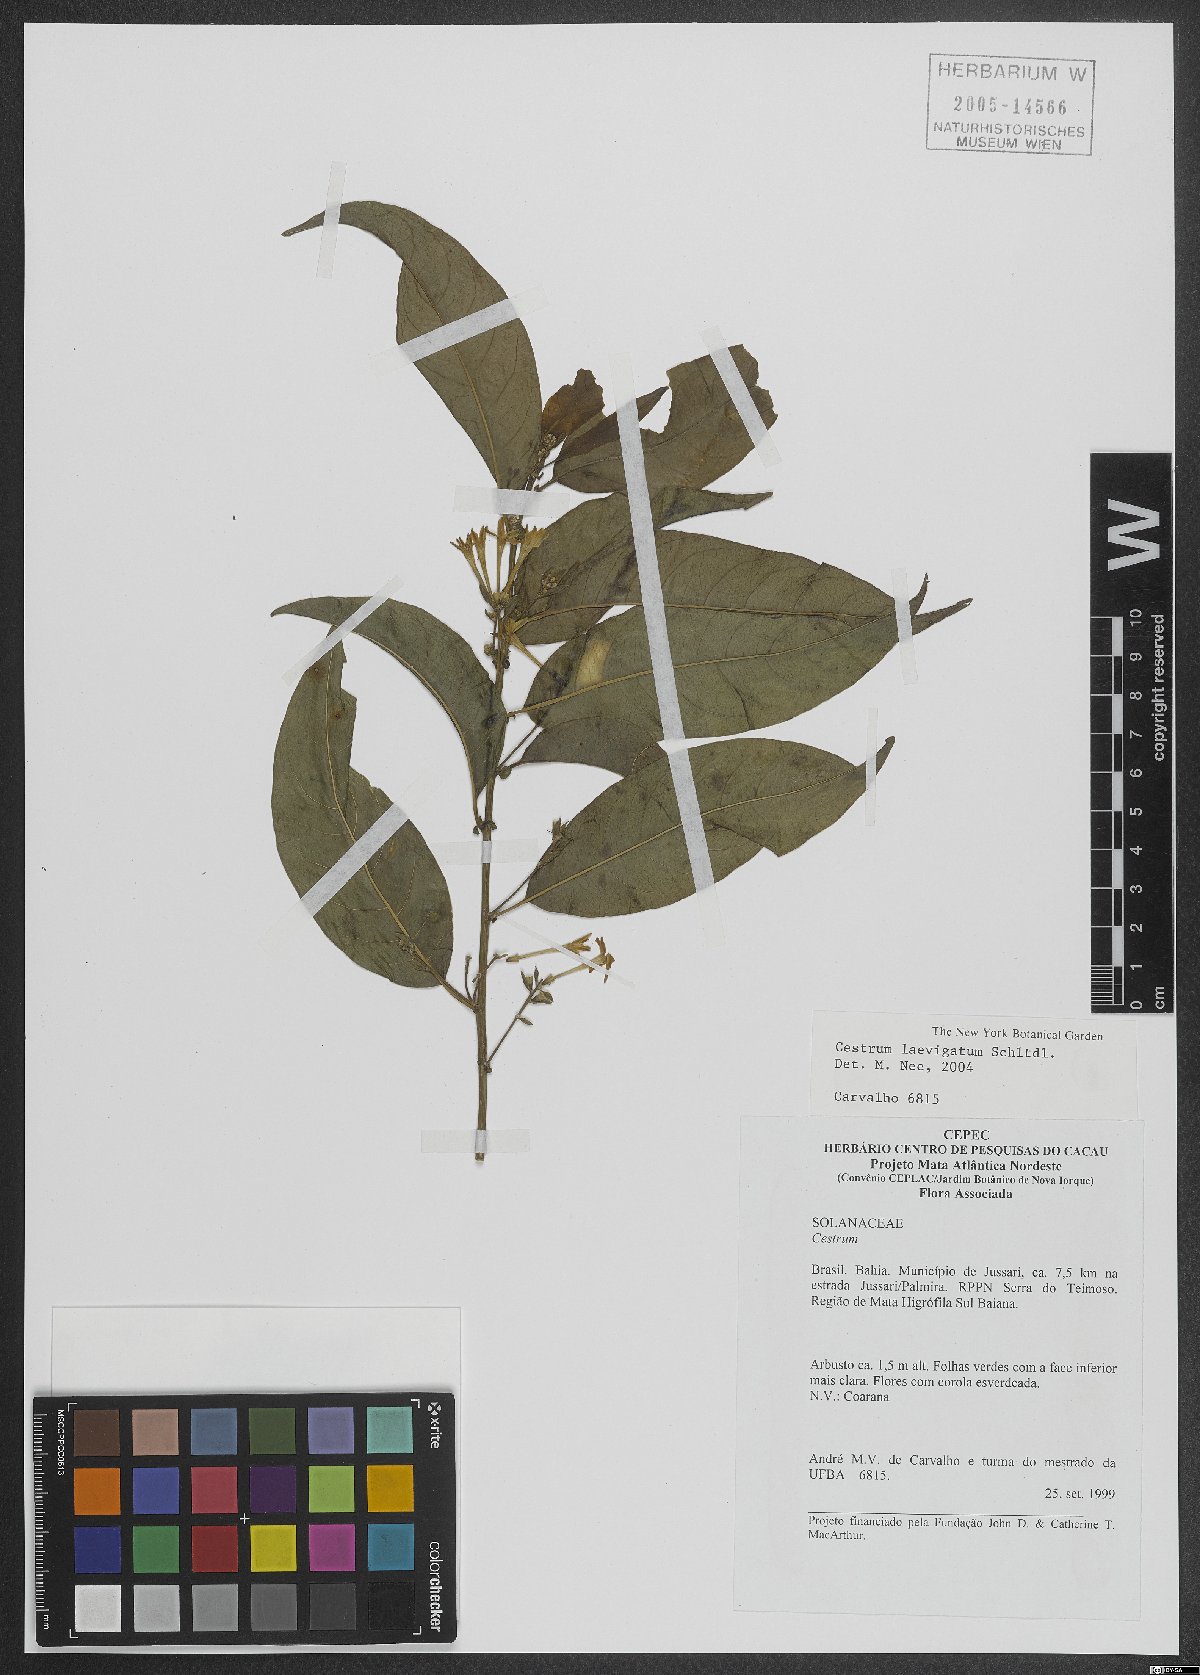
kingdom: Plantae
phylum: Tracheophyta
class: Magnoliopsida
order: Solanales
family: Solanaceae
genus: Cestrum
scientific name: Cestrum laevigatum
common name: Inkberry
